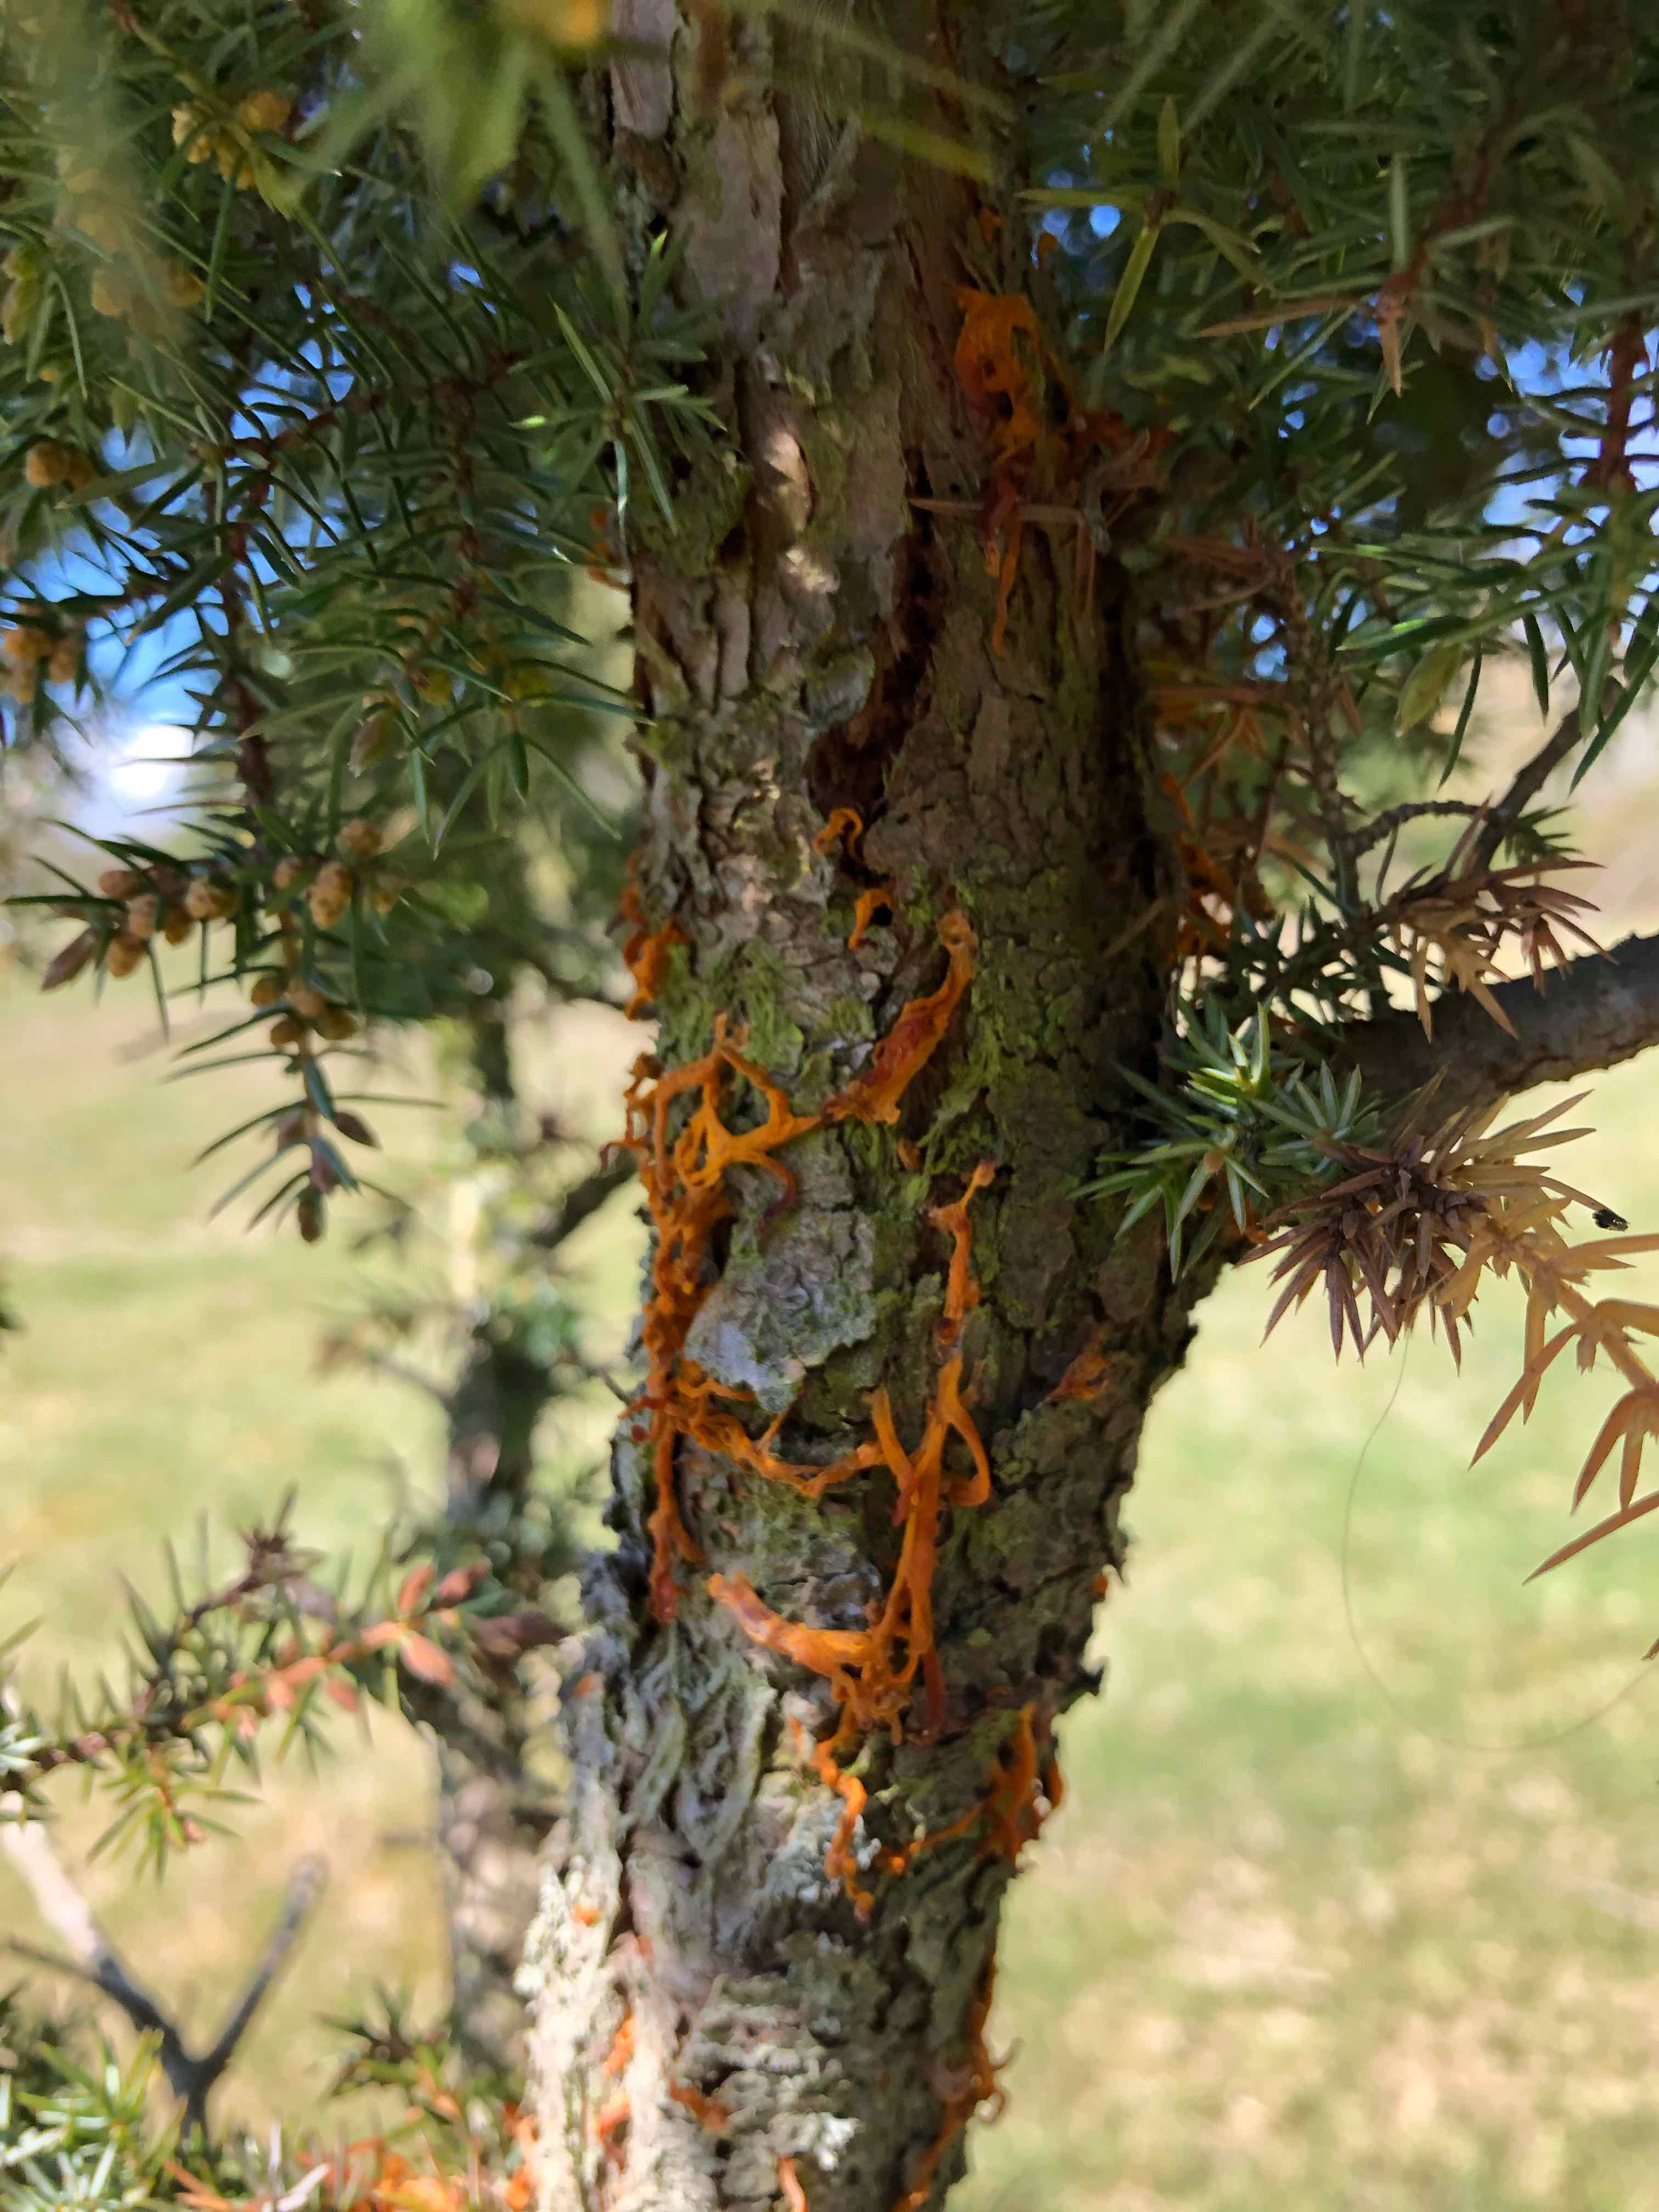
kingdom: Fungi
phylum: Basidiomycota
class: Pucciniomycetes
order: Pucciniales
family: Gymnosporangiaceae
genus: Gymnosporangium
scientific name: Gymnosporangium clavariiforme
